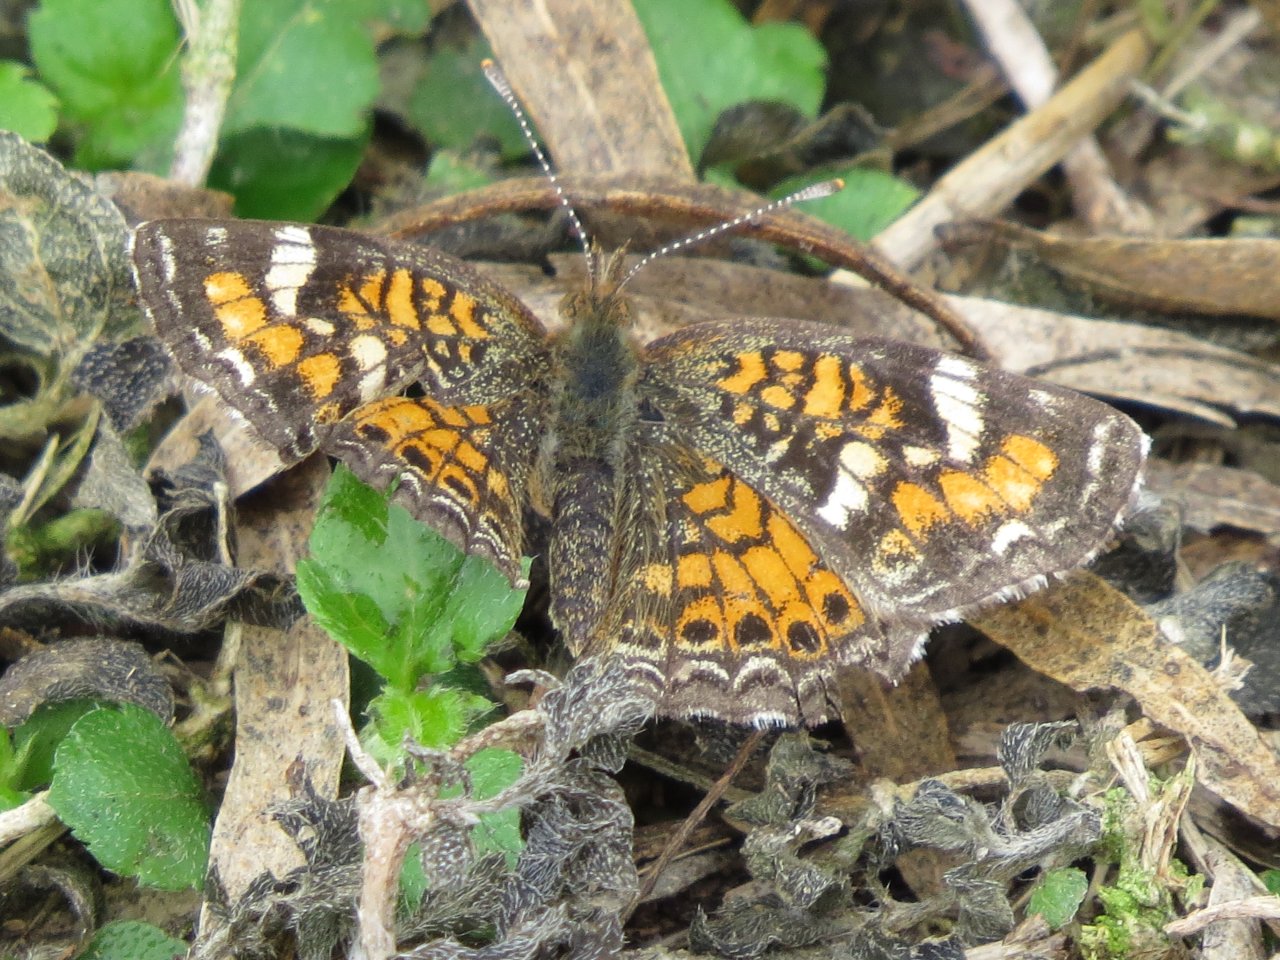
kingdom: Animalia
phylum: Arthropoda
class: Insecta
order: Lepidoptera
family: Nymphalidae
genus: Phyciodes
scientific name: Phyciodes phaon
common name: Phaon Crescent
